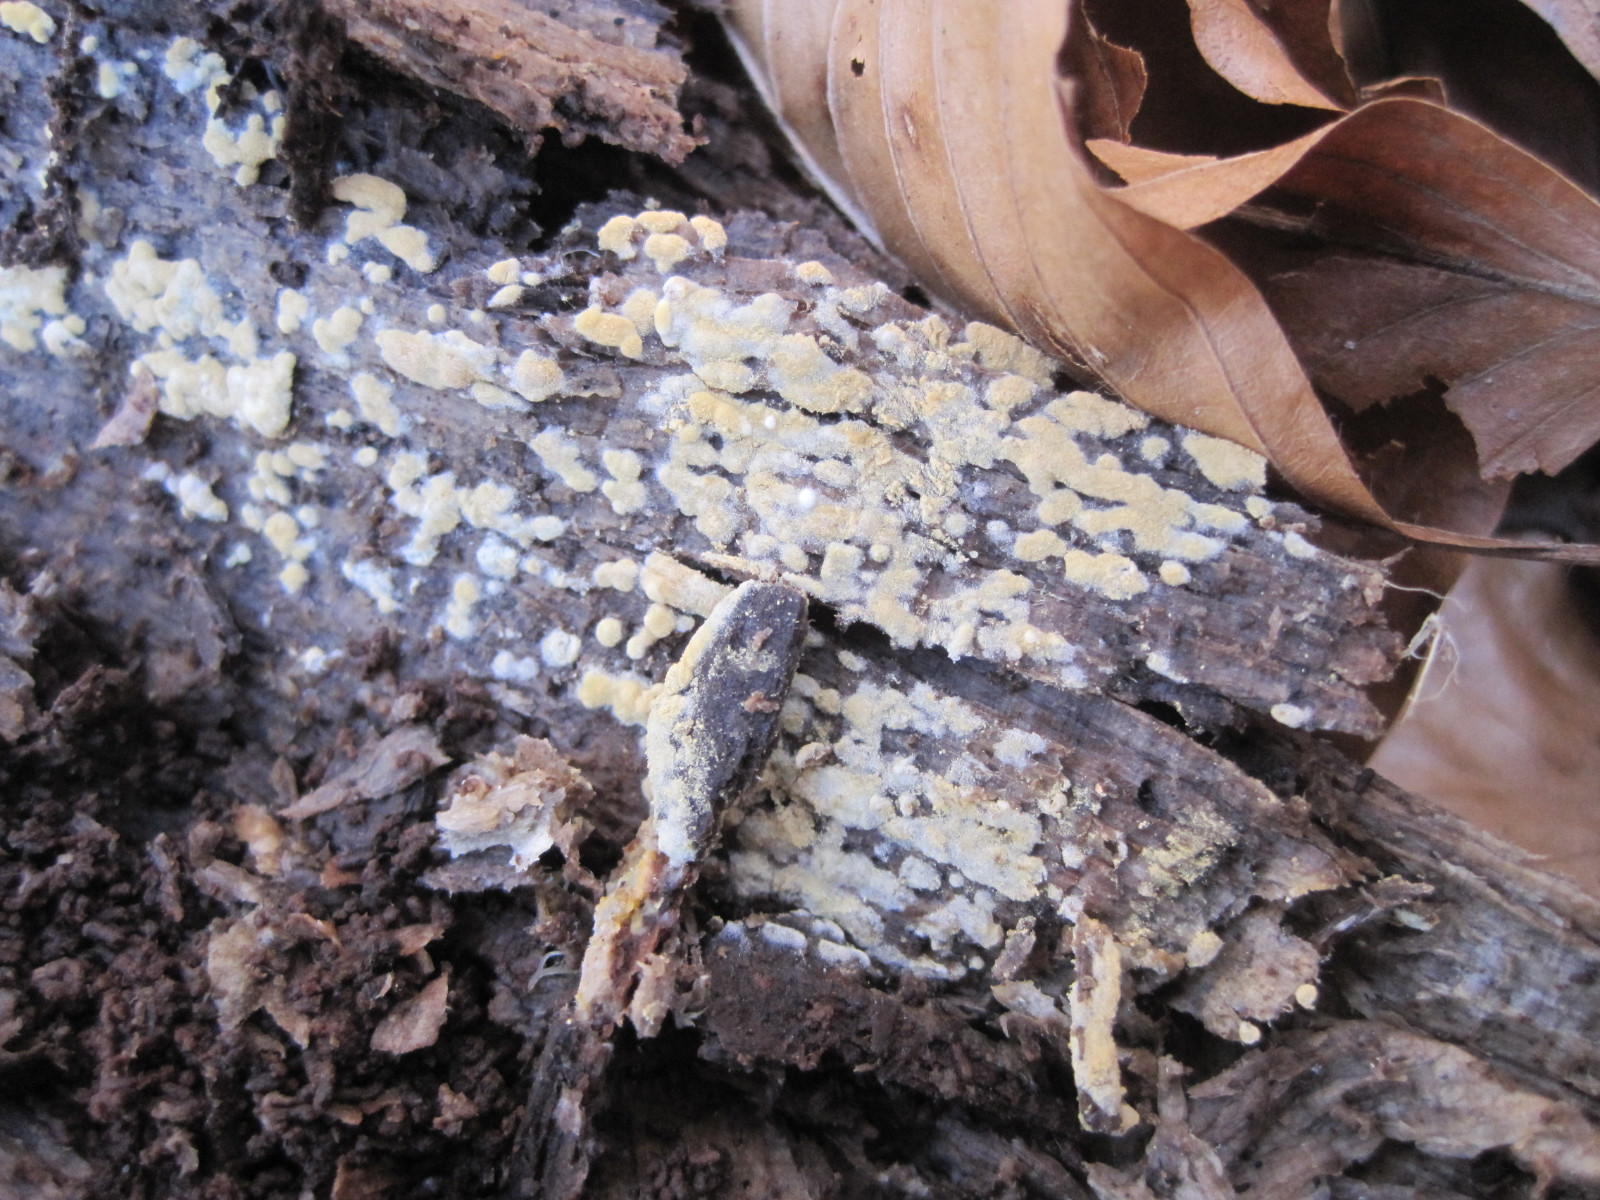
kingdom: Fungi
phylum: Basidiomycota
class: Agaricomycetes
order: Cantharellales
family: Botryobasidiaceae
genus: Botryobasidium
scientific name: Botryobasidium aureum
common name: gylden spindhinde
